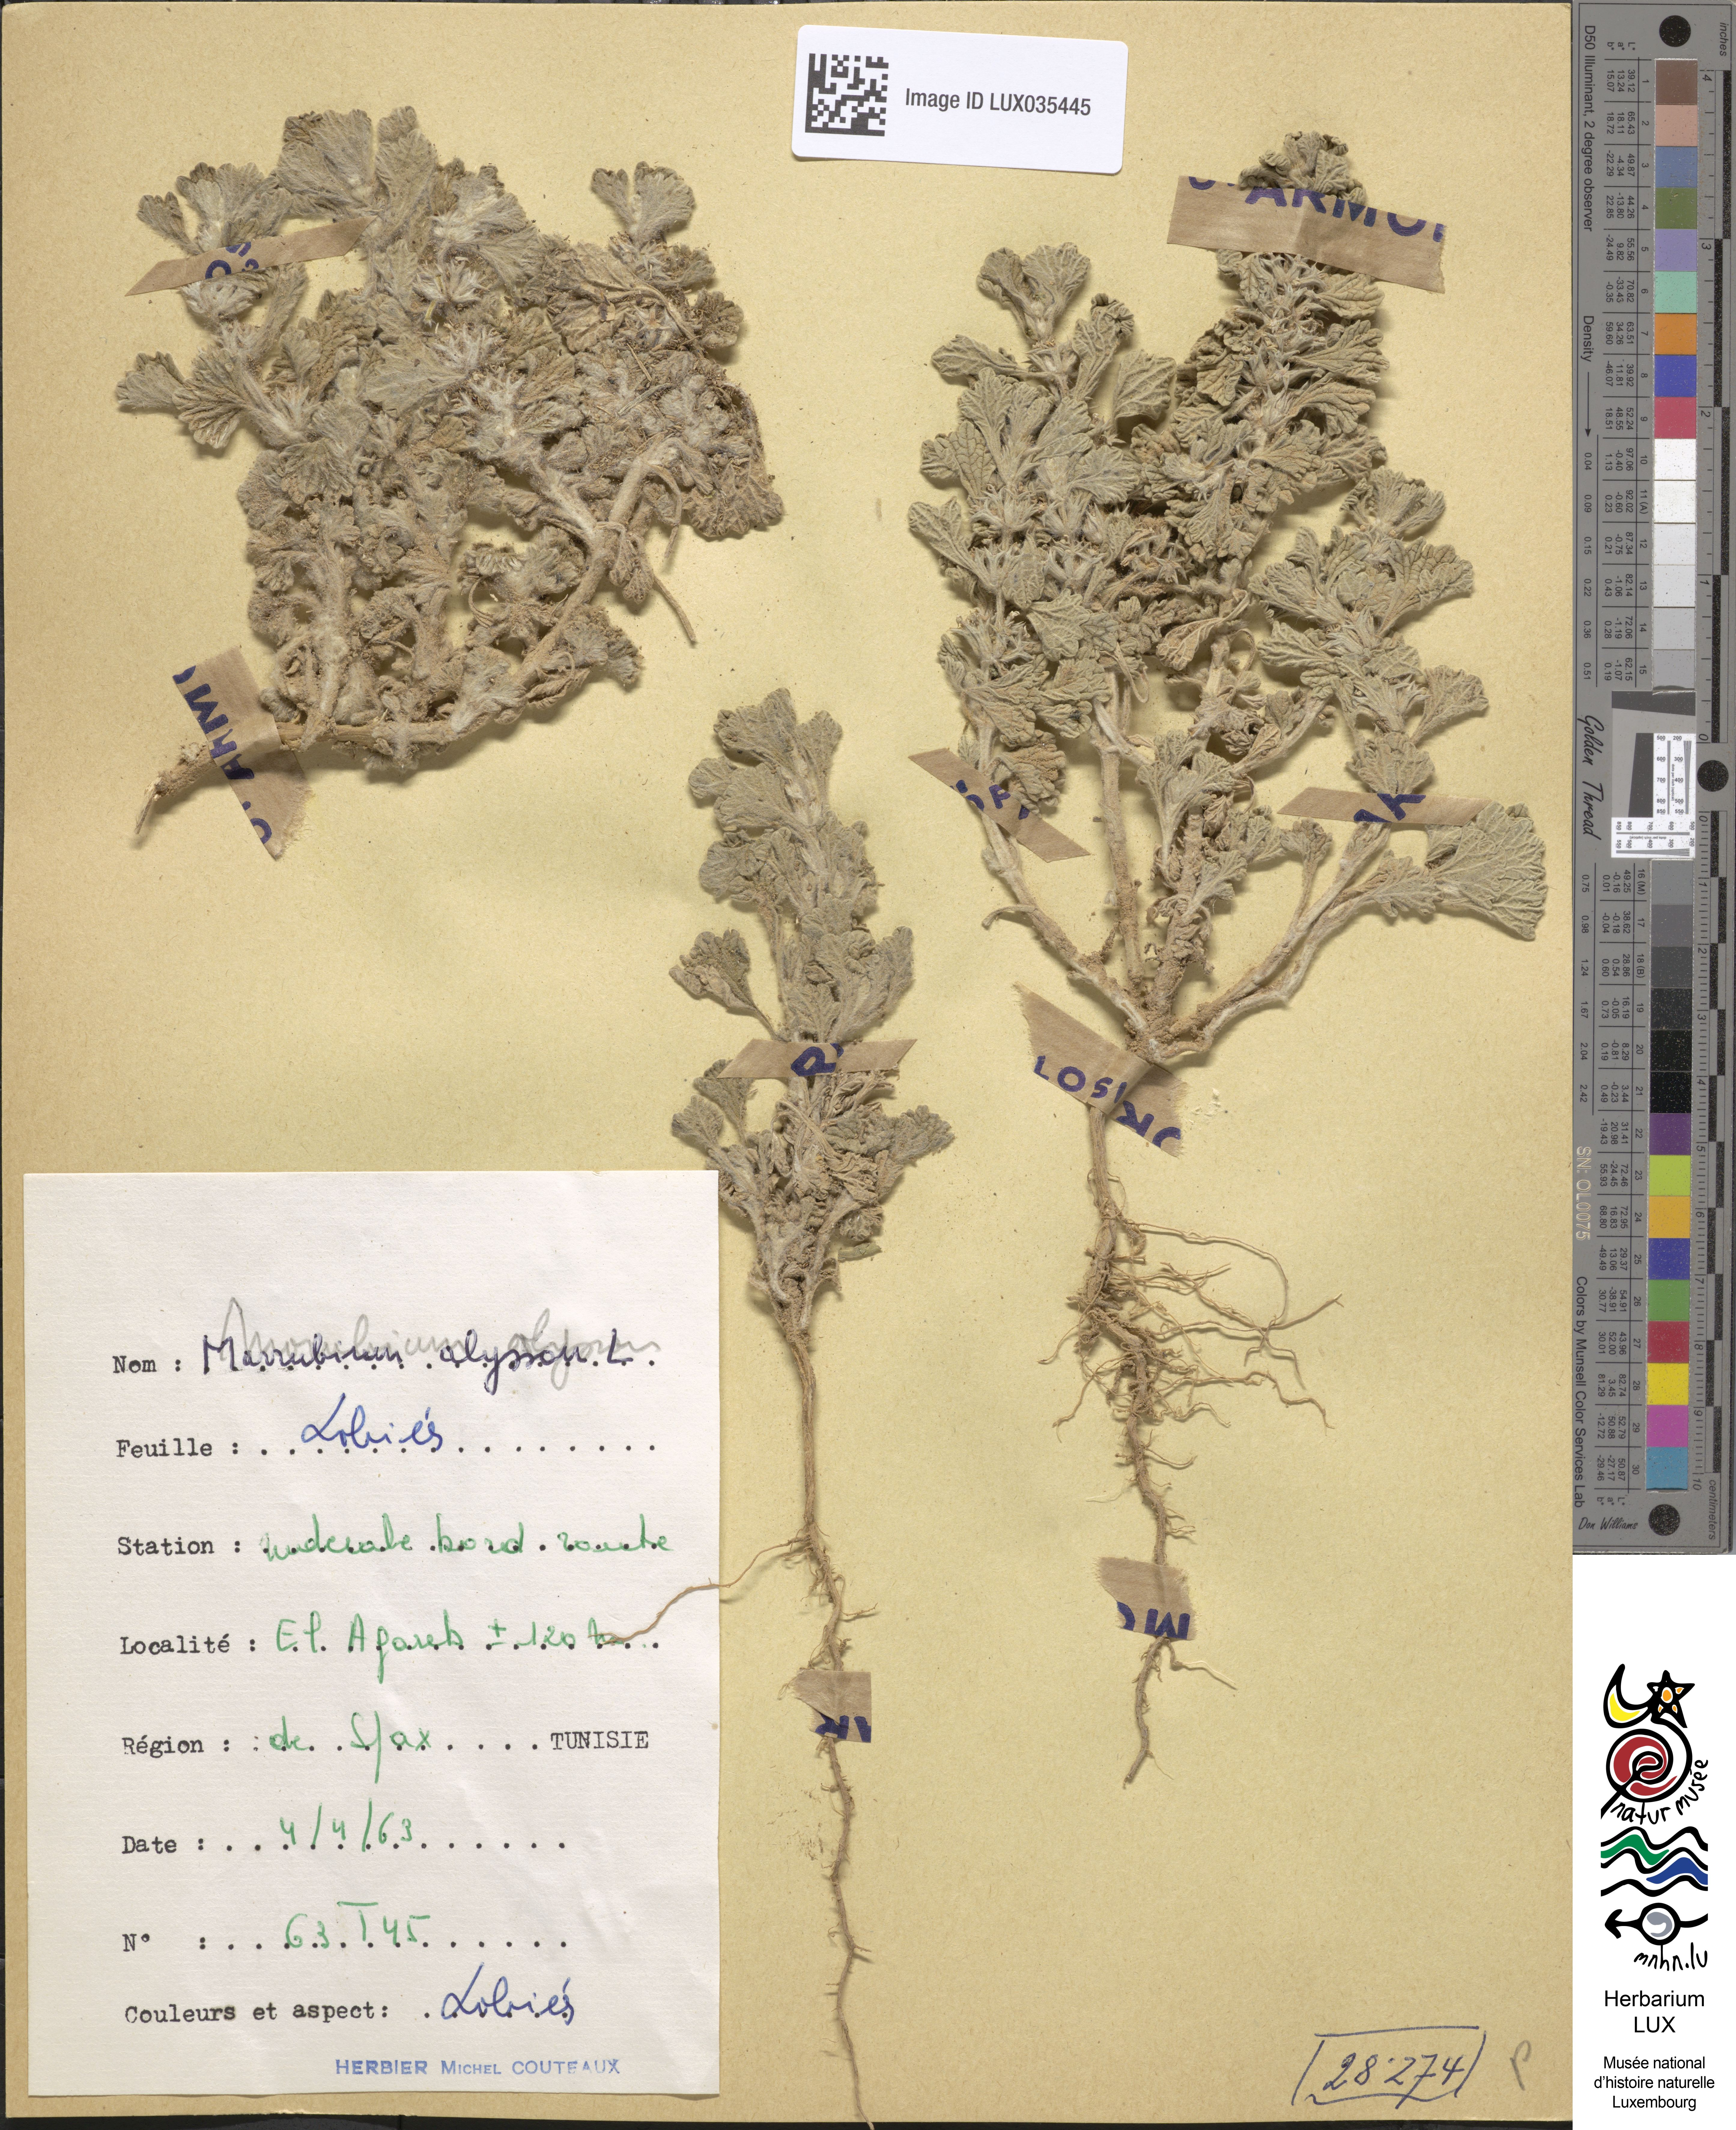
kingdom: Plantae
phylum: Tracheophyta
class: Magnoliopsida
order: Lamiales
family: Lamiaceae
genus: Marrubium
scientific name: Marrubium alysson
